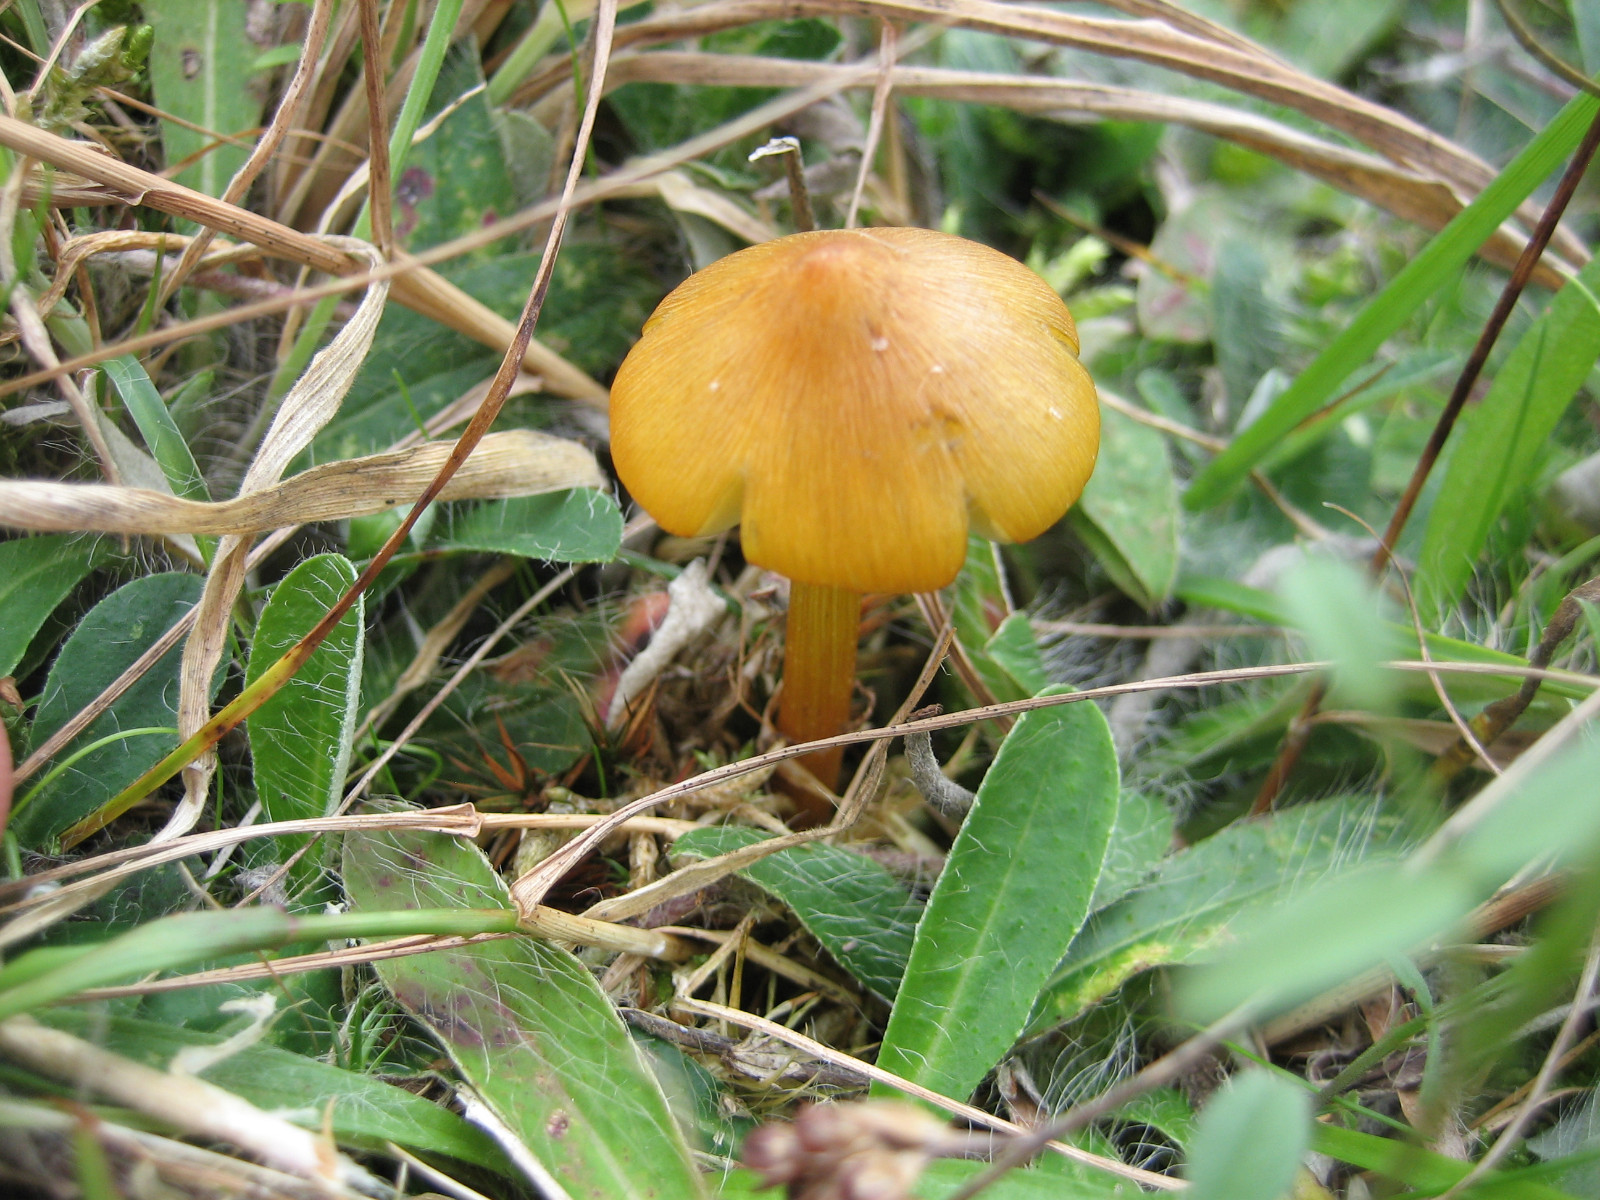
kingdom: Fungi
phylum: Basidiomycota
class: Agaricomycetes
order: Agaricales
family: Hygrophoraceae
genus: Hygrocybe
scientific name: Hygrocybe conica
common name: kegle-vokshat
